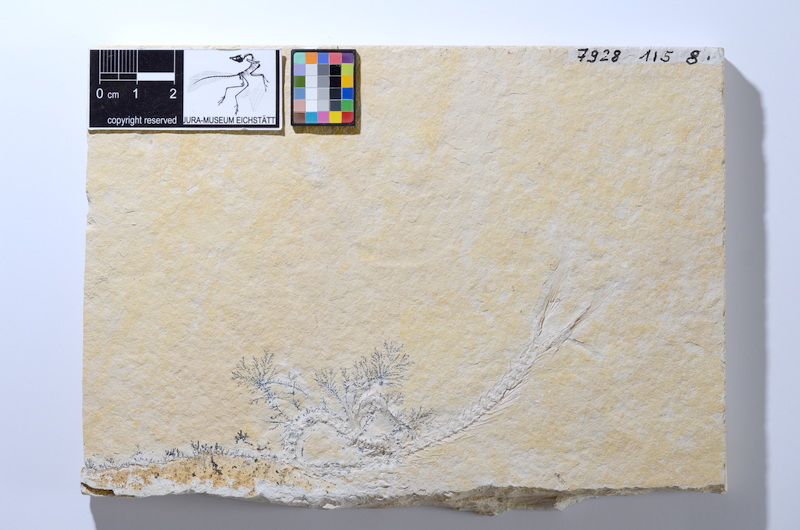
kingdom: Animalia
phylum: Chordata
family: Ascalaboidae
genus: Tharsis
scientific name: Tharsis dubius
